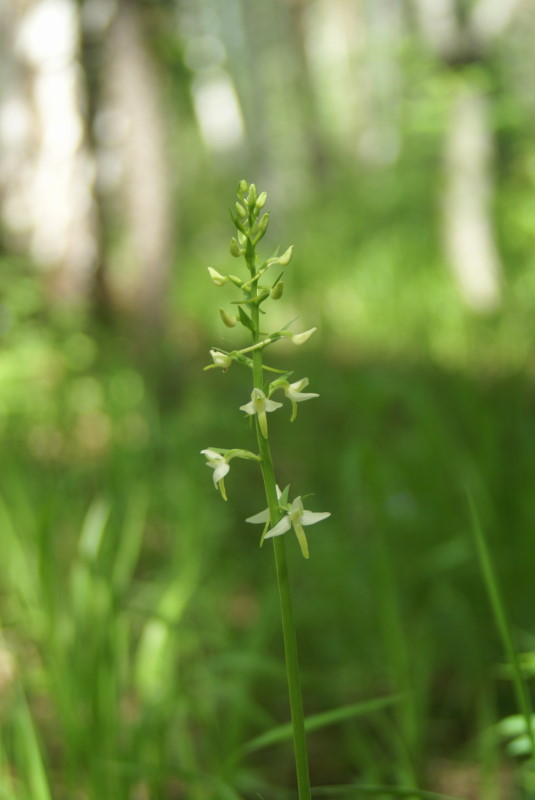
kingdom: Plantae
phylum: Tracheophyta
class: Liliopsida
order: Asparagales
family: Orchidaceae
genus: Platanthera
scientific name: Platanthera bifolia
